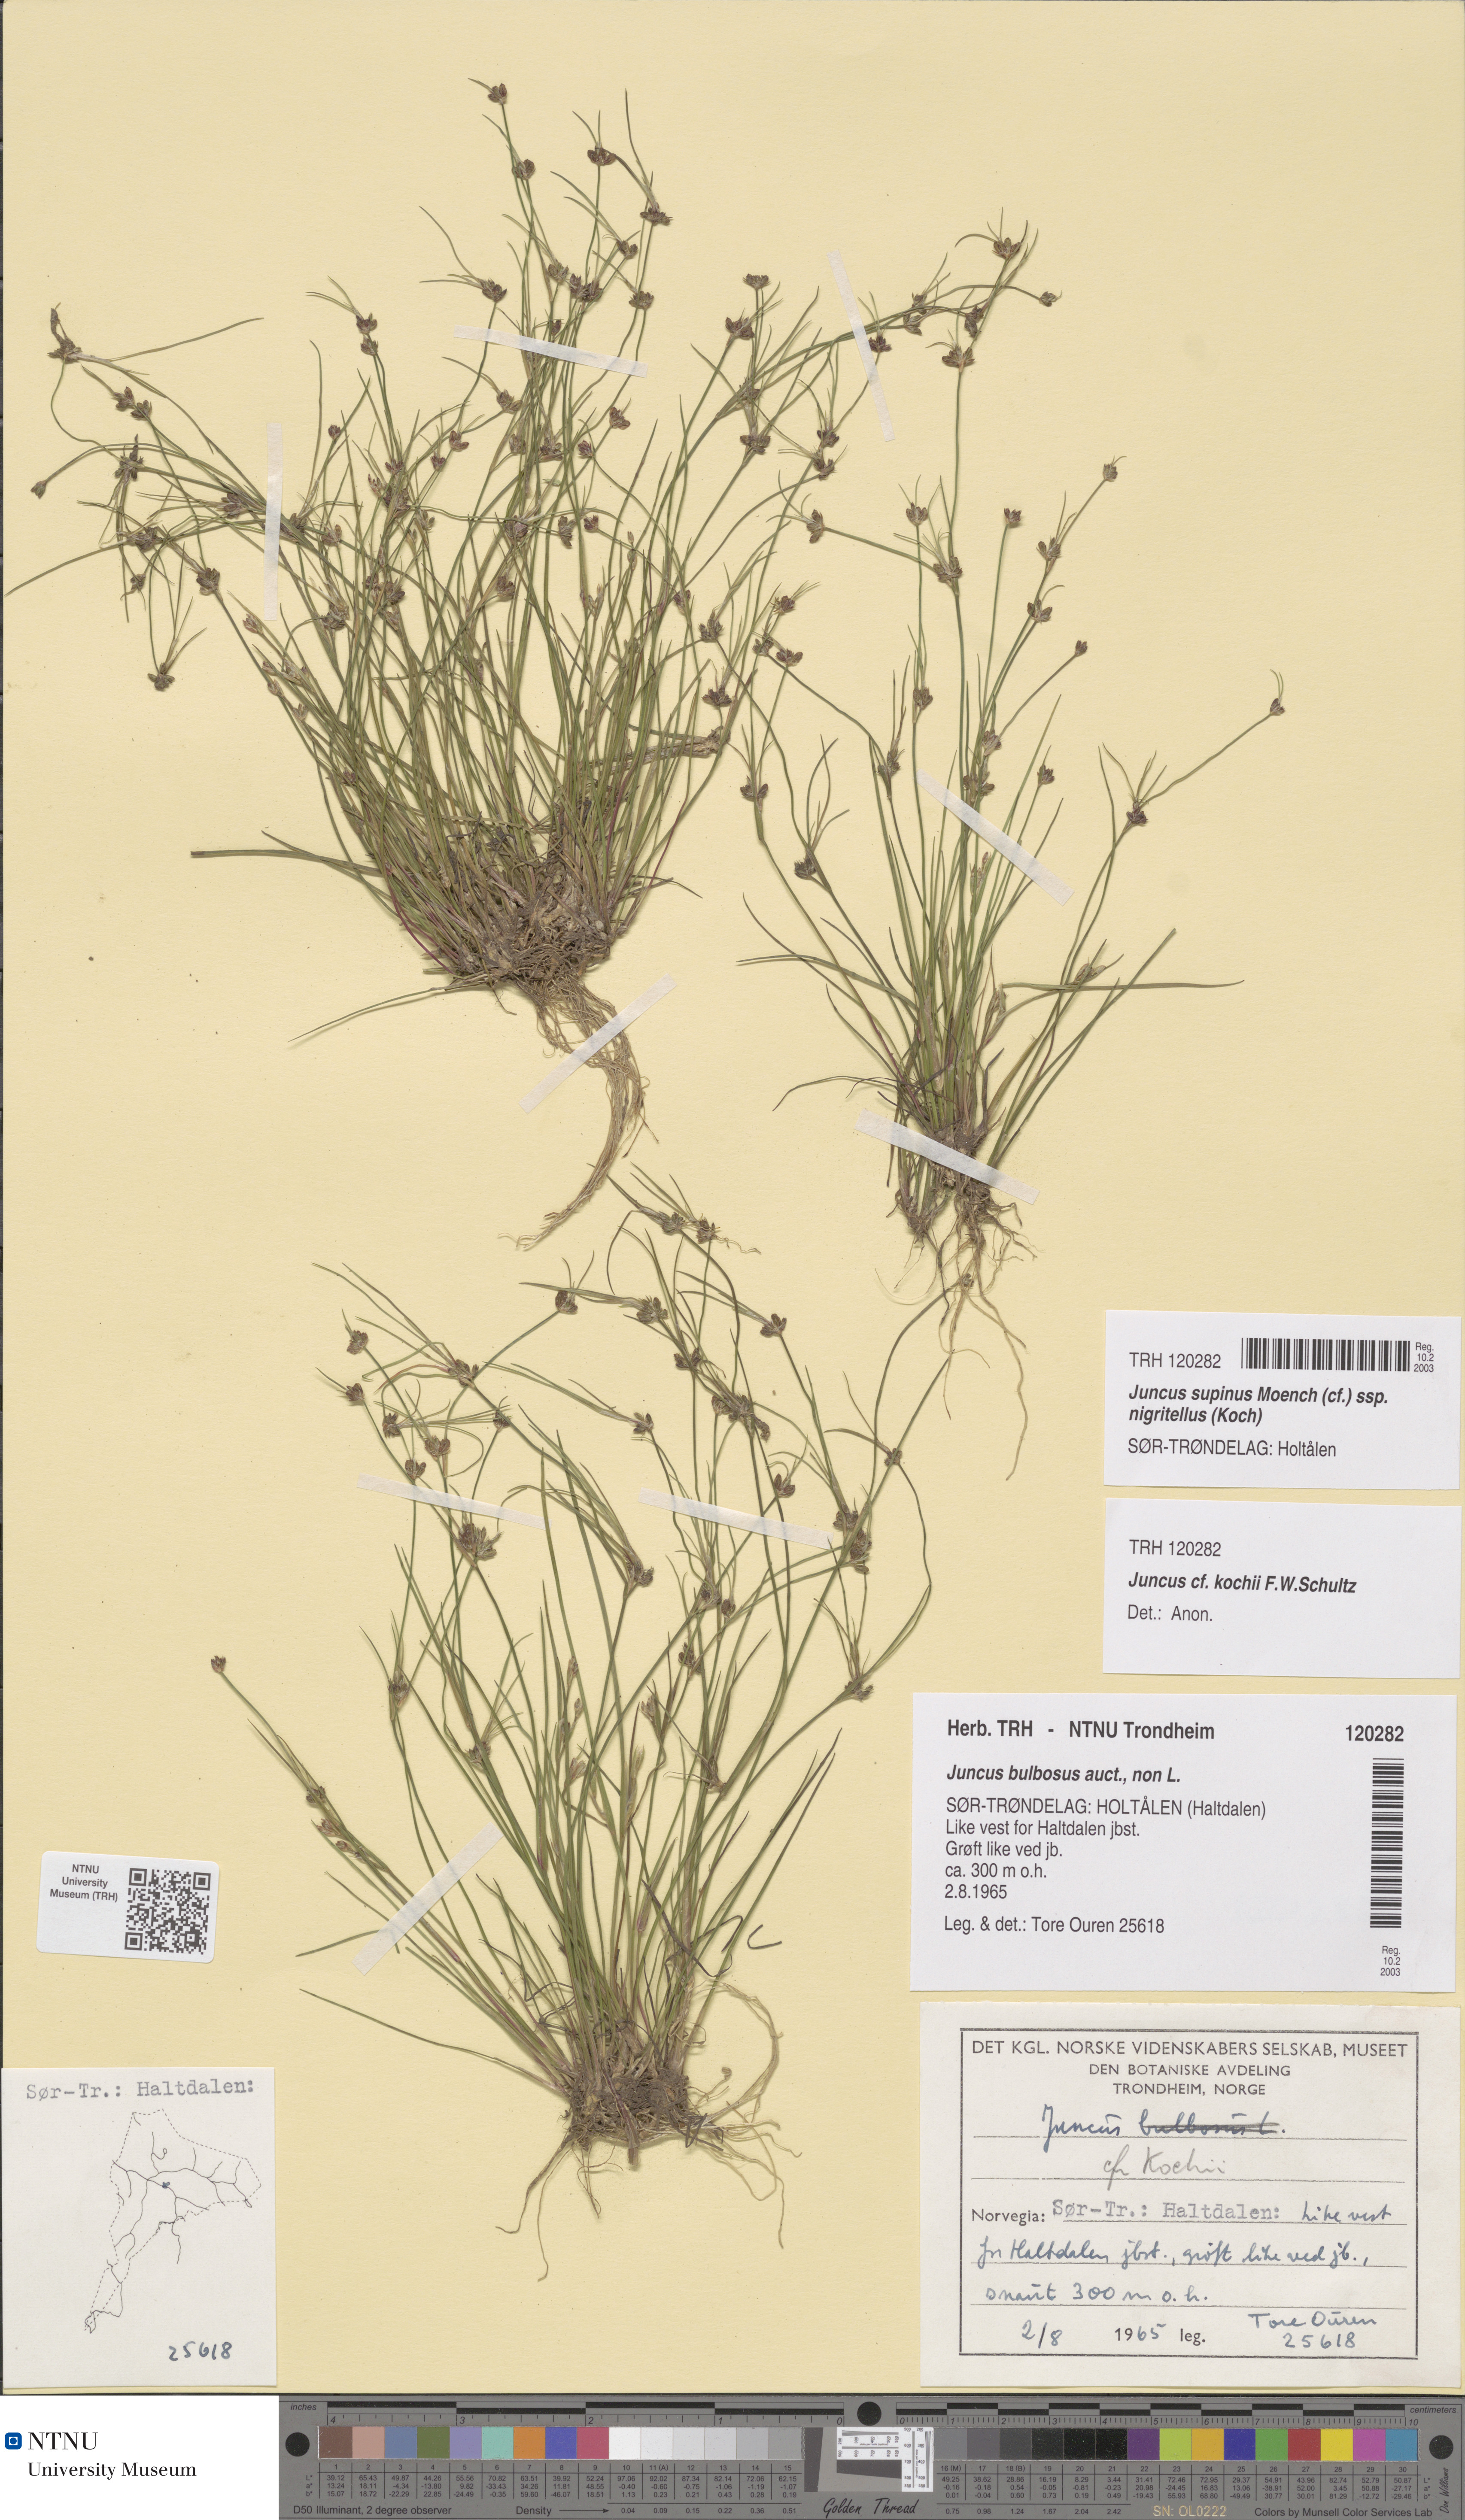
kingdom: Plantae
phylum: Tracheophyta
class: Liliopsida
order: Poales
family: Juncaceae
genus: Juncus
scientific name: Juncus bulbosus
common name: Bulbous rush
